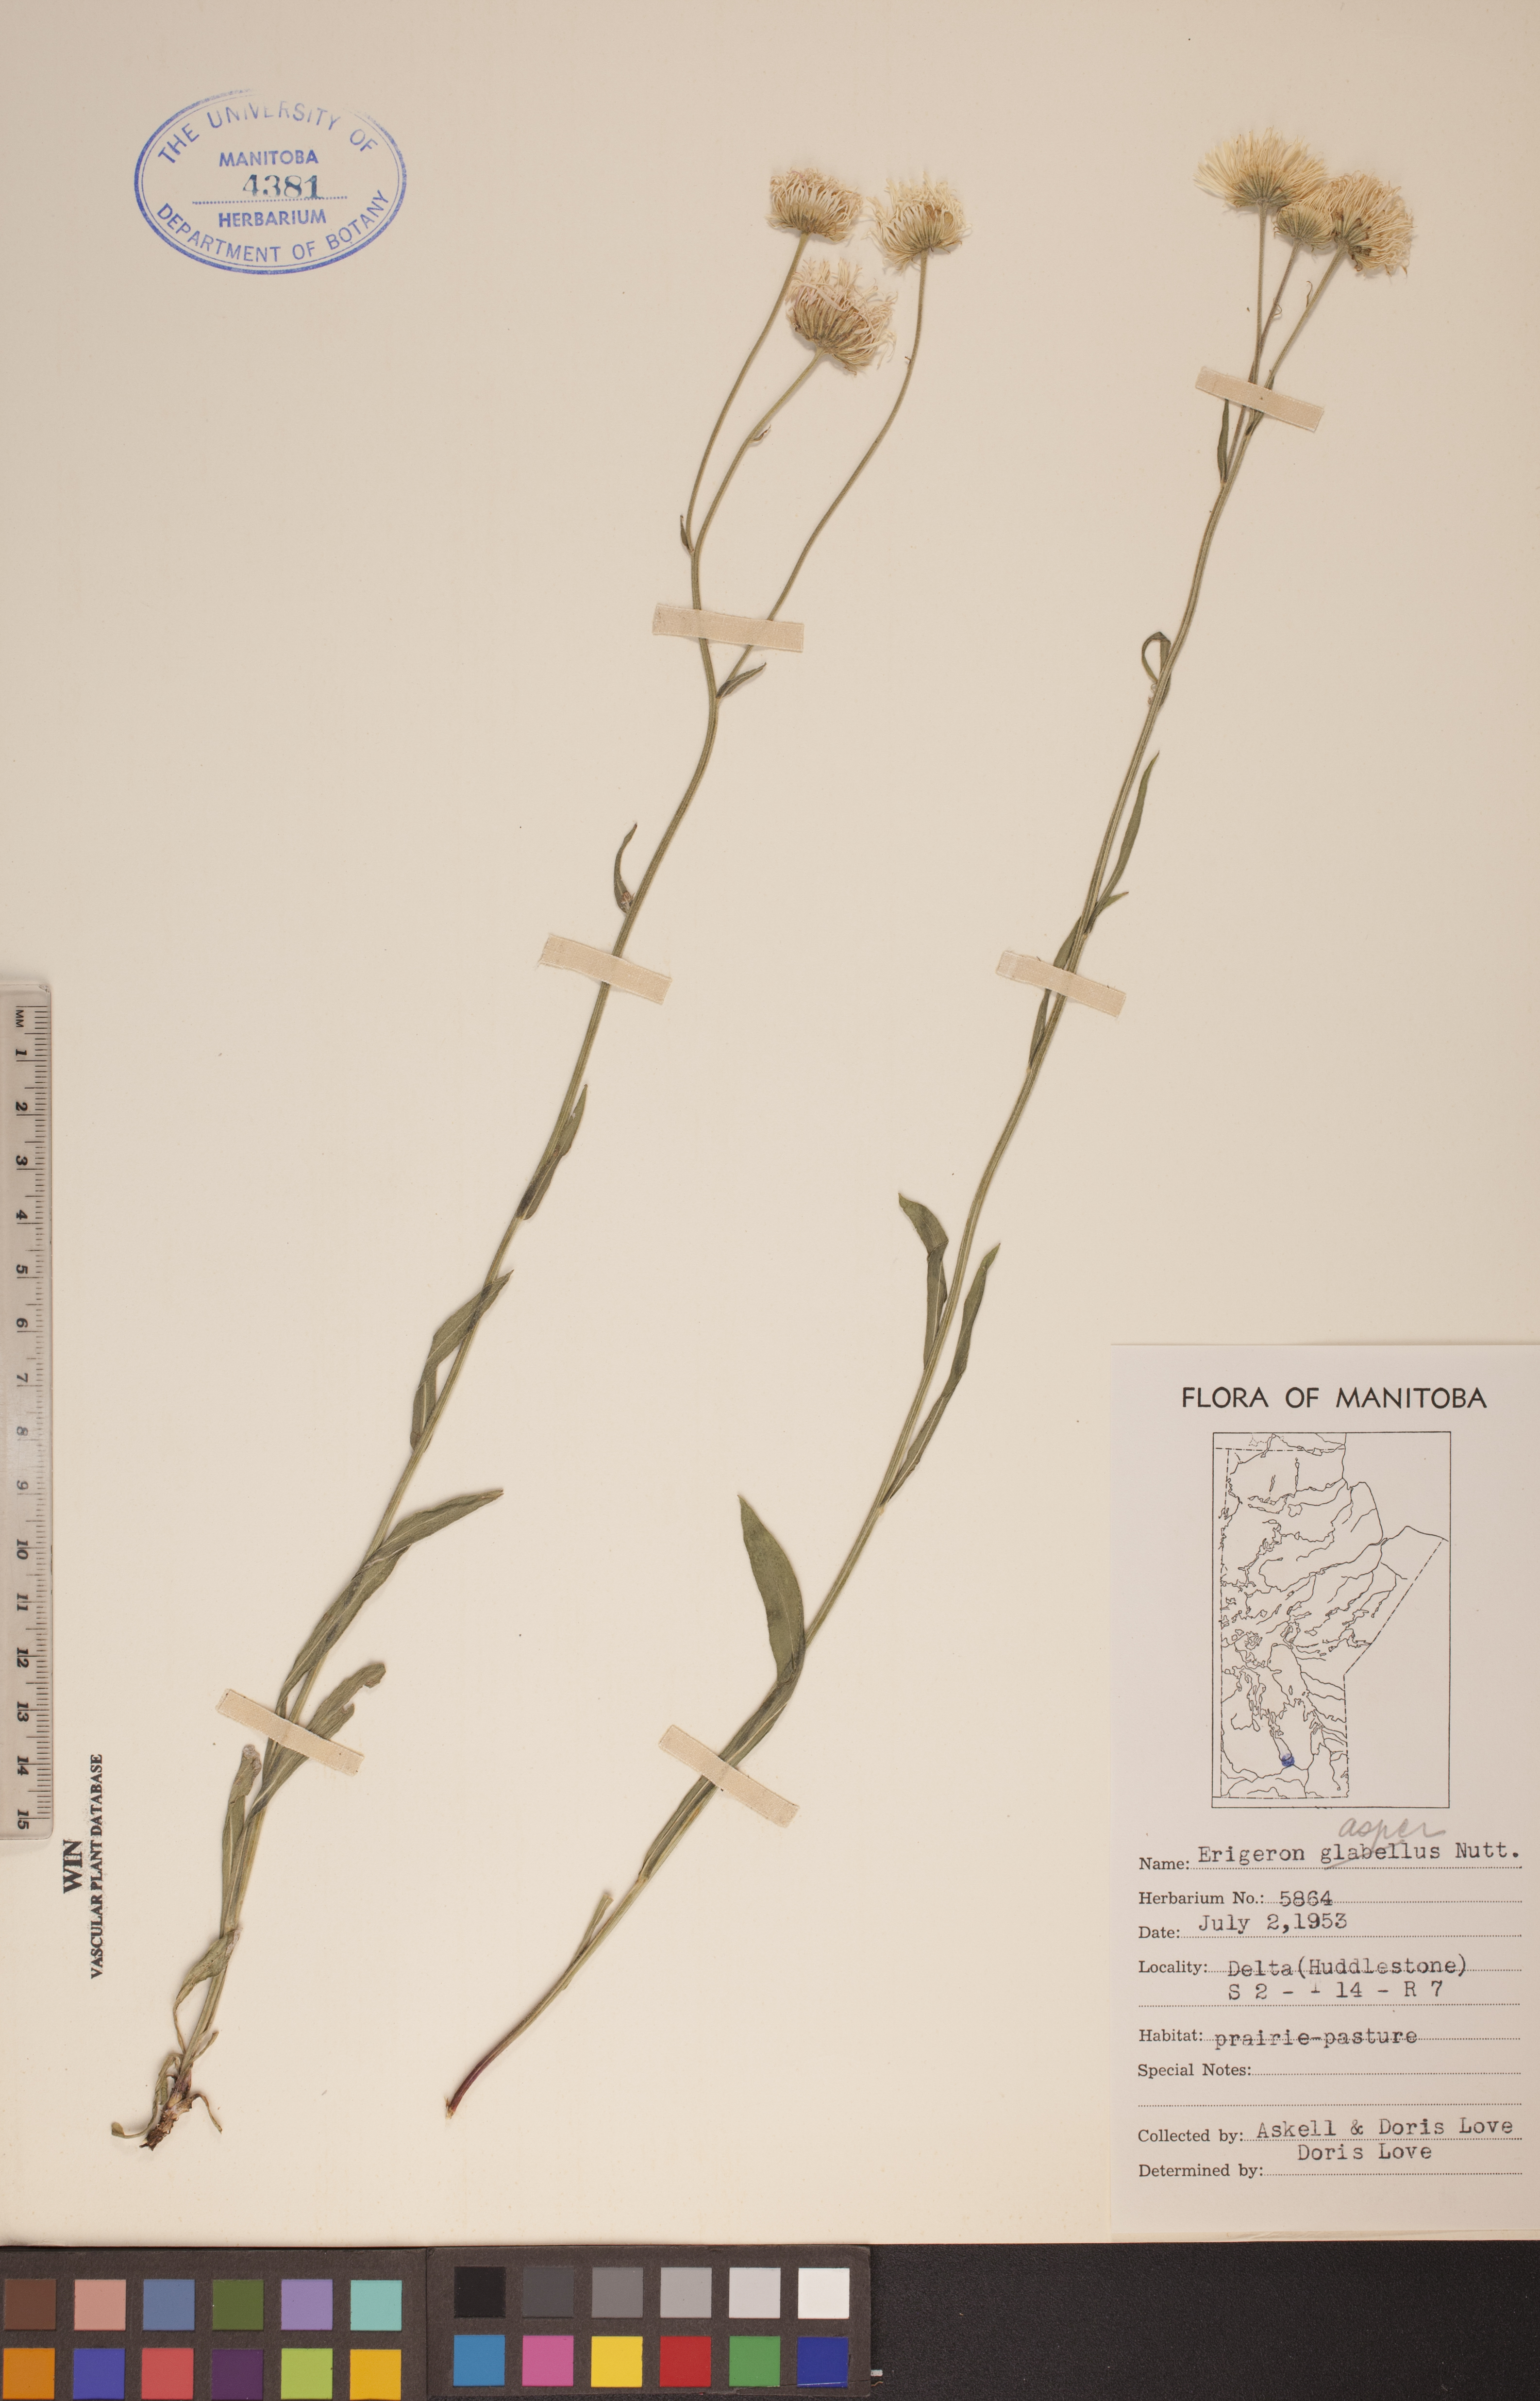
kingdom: Plantae
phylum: Tracheophyta
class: Magnoliopsida
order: Asterales
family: Asteraceae
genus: Erigeron
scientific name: Erigeron glabellus
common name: Smooth fleabane
